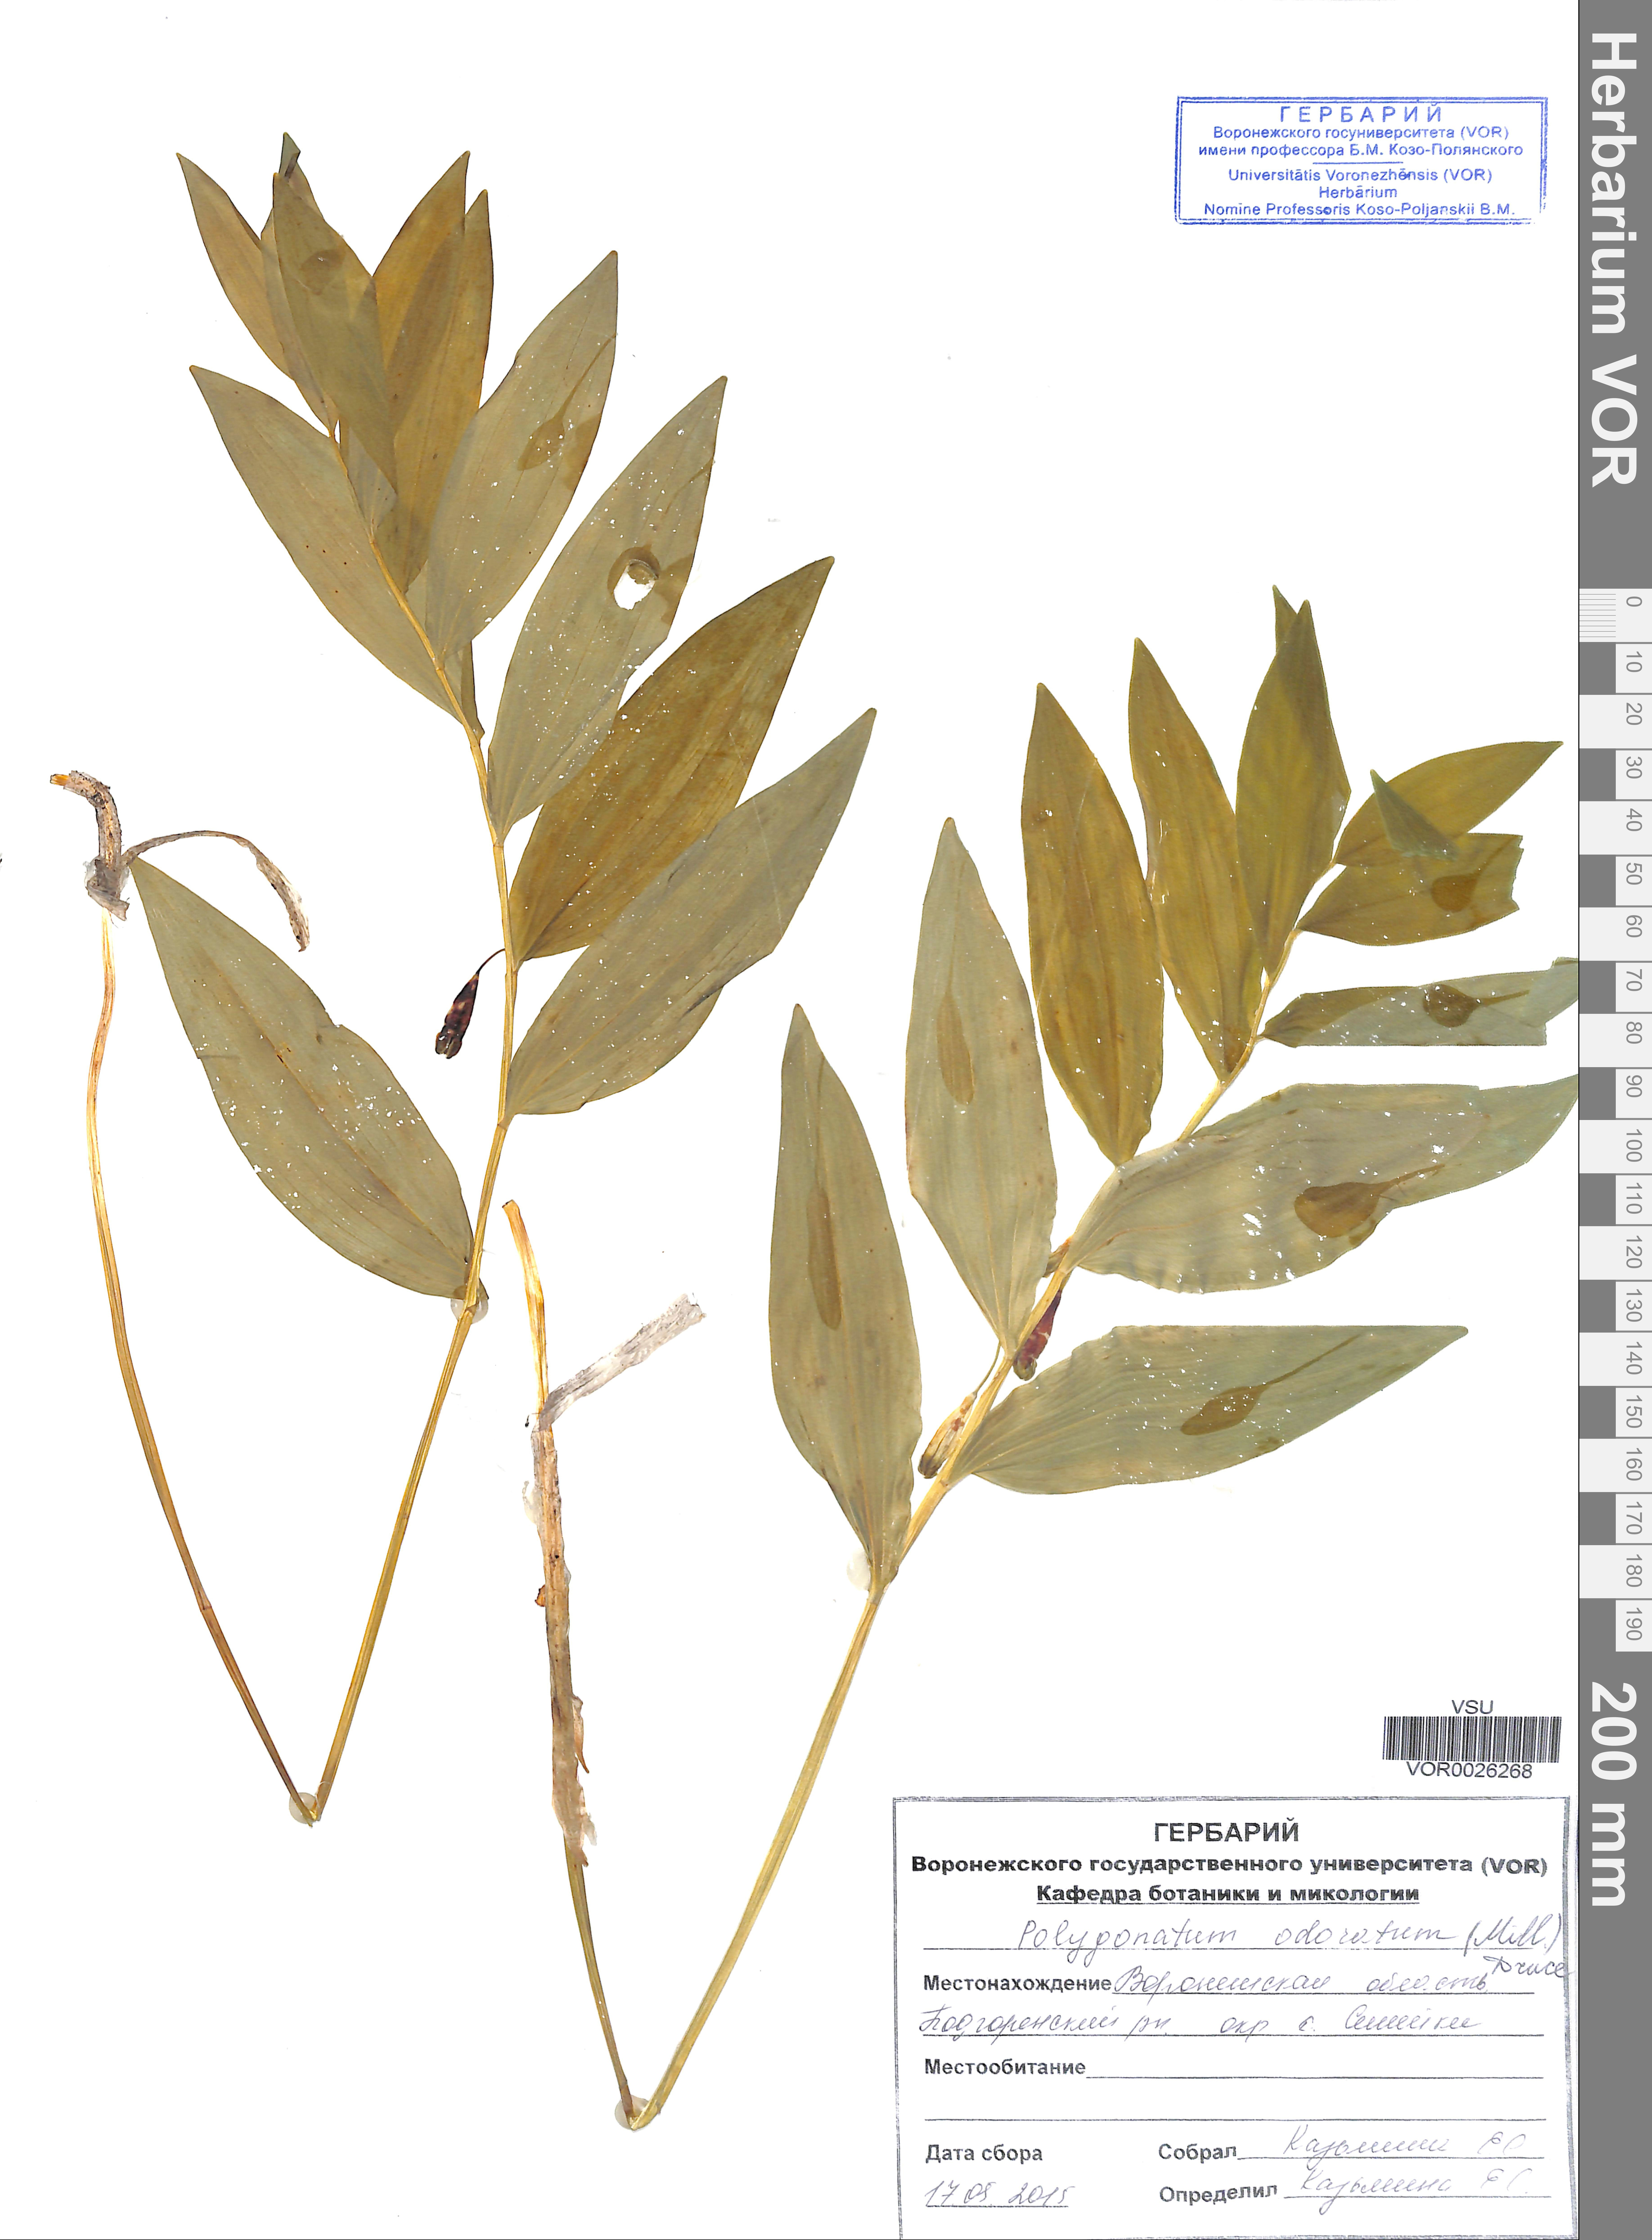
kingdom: Plantae
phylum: Tracheophyta
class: Liliopsida
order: Asparagales
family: Asparagaceae
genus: Polygonatum
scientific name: Polygonatum odoratum
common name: Angular solomon's-seal
